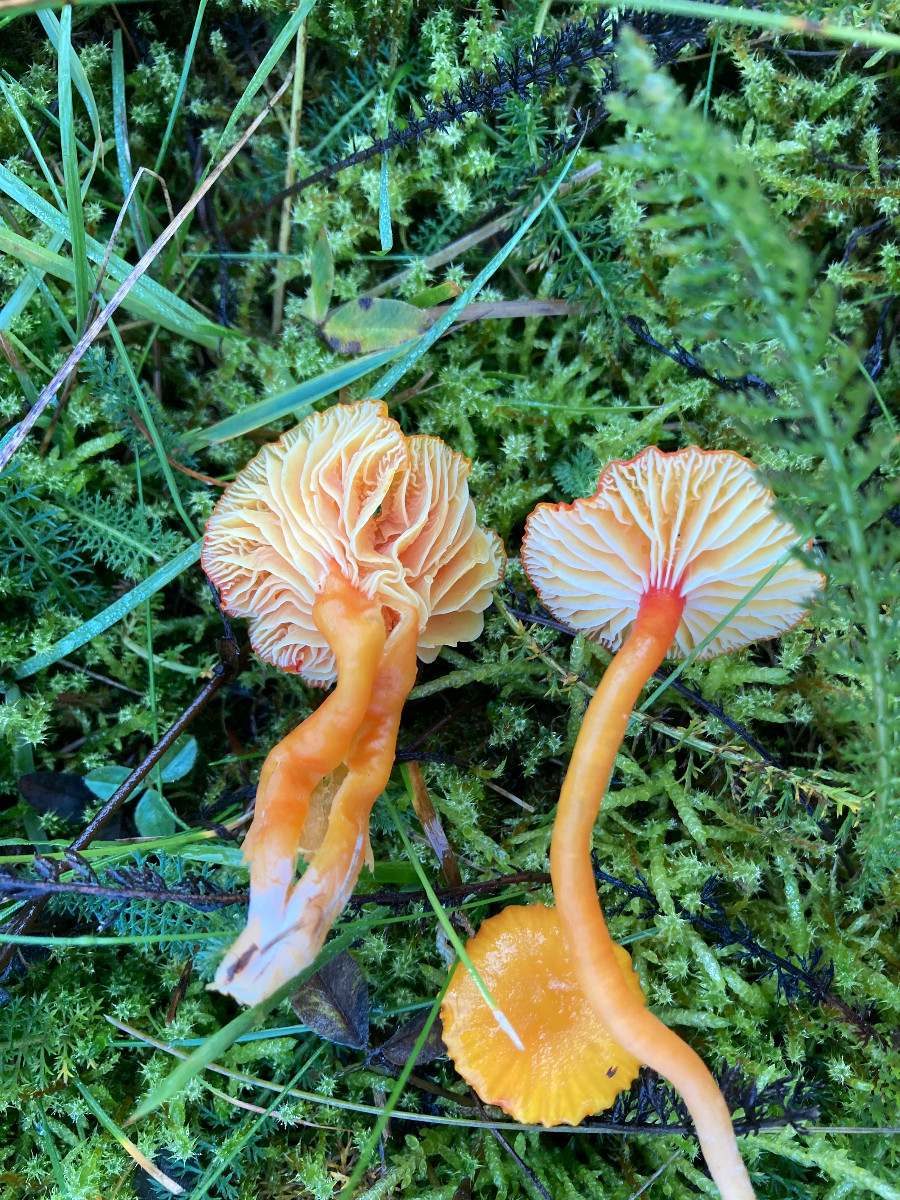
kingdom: Fungi
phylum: Basidiomycota
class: Agaricomycetes
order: Agaricales
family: Hygrophoraceae
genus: Hygrocybe
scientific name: Hygrocybe insipida
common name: liden vokshat
